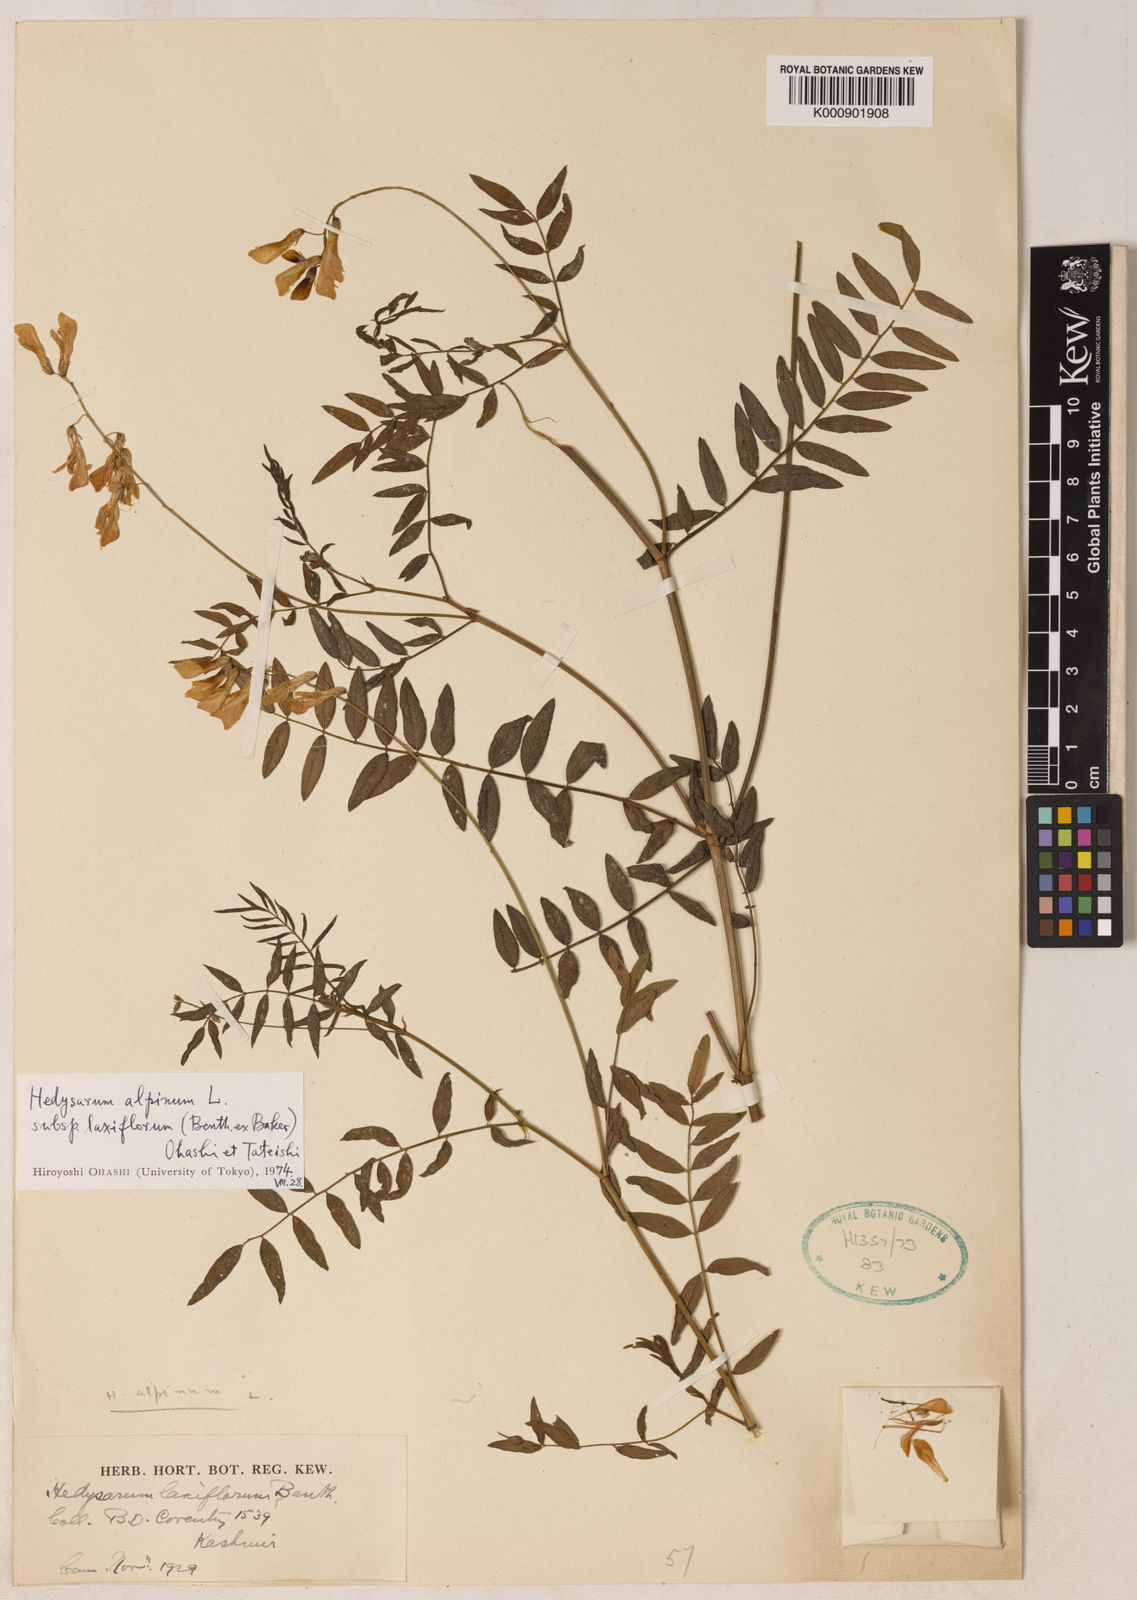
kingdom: Plantae
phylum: Tracheophyta
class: Magnoliopsida
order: Fabales
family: Fabaceae
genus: Hedysarum
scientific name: Hedysarum alpinum
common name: Alpine sweet-vetch
